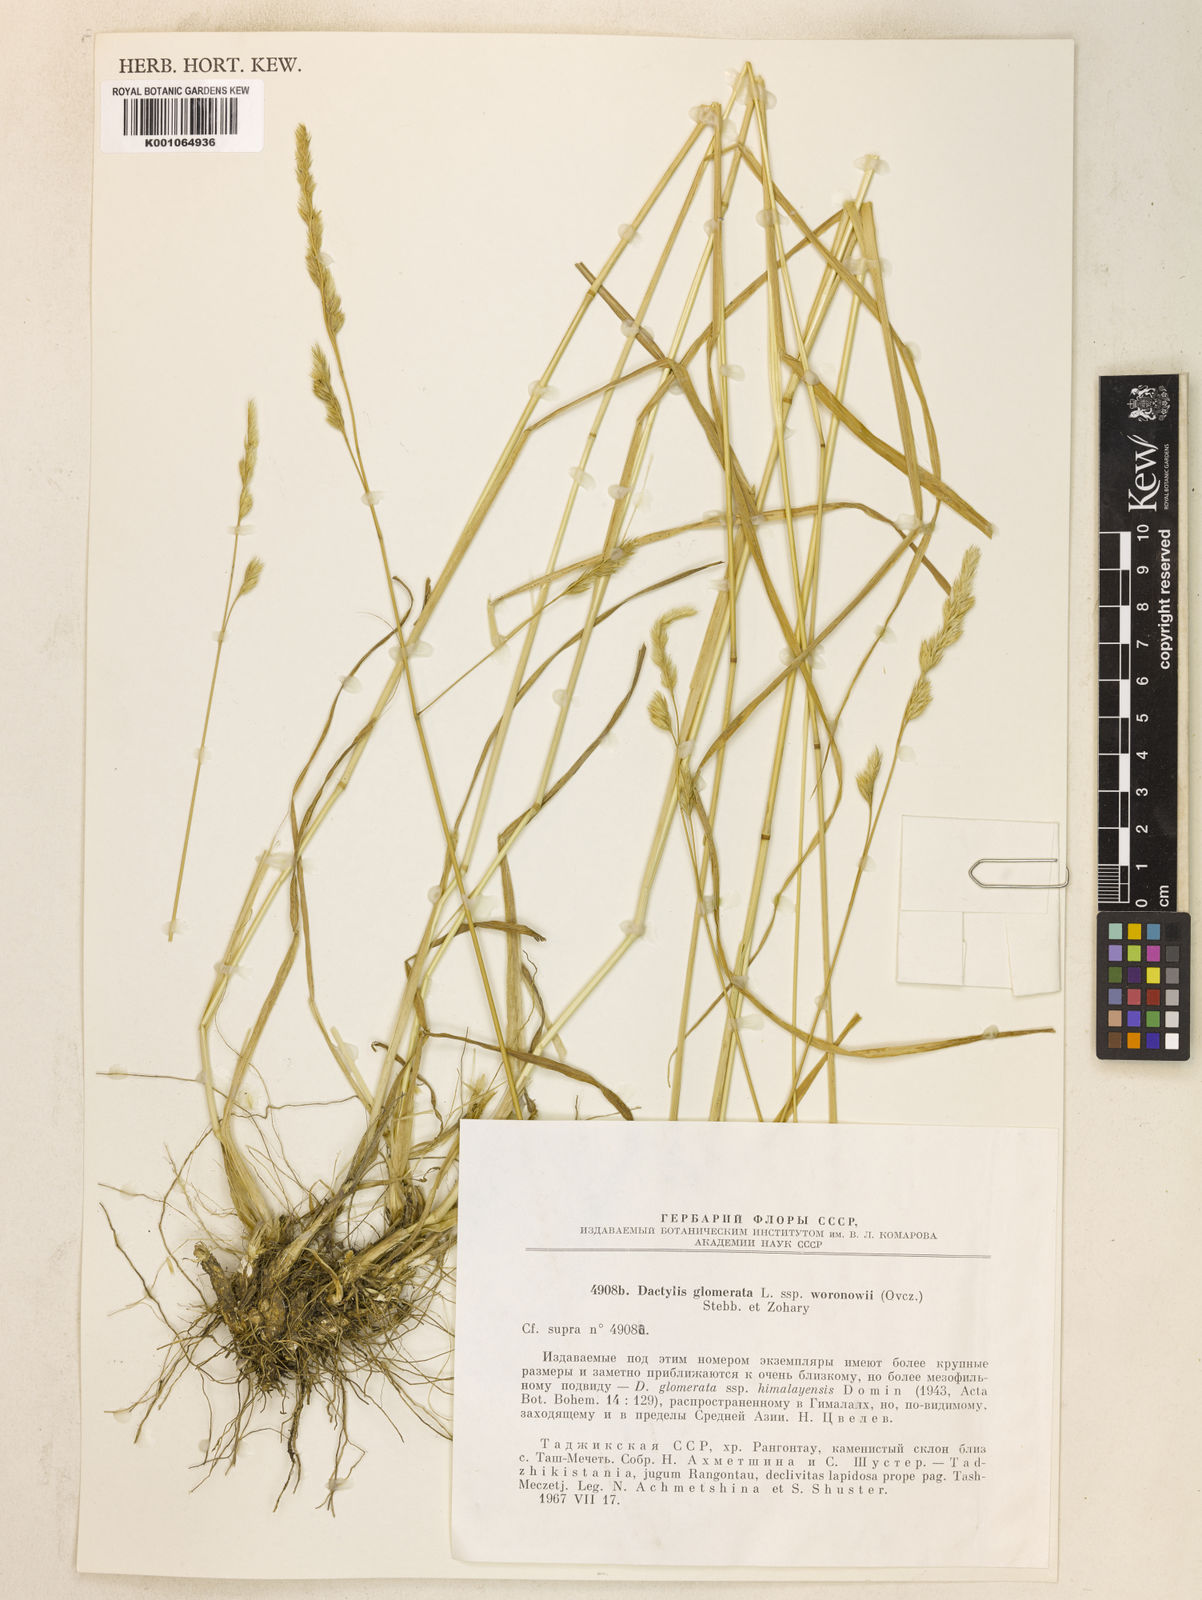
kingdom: Plantae
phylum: Tracheophyta
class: Liliopsida
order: Poales
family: Poaceae
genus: Dactylis
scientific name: Dactylis glomerata
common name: Orchardgrass
